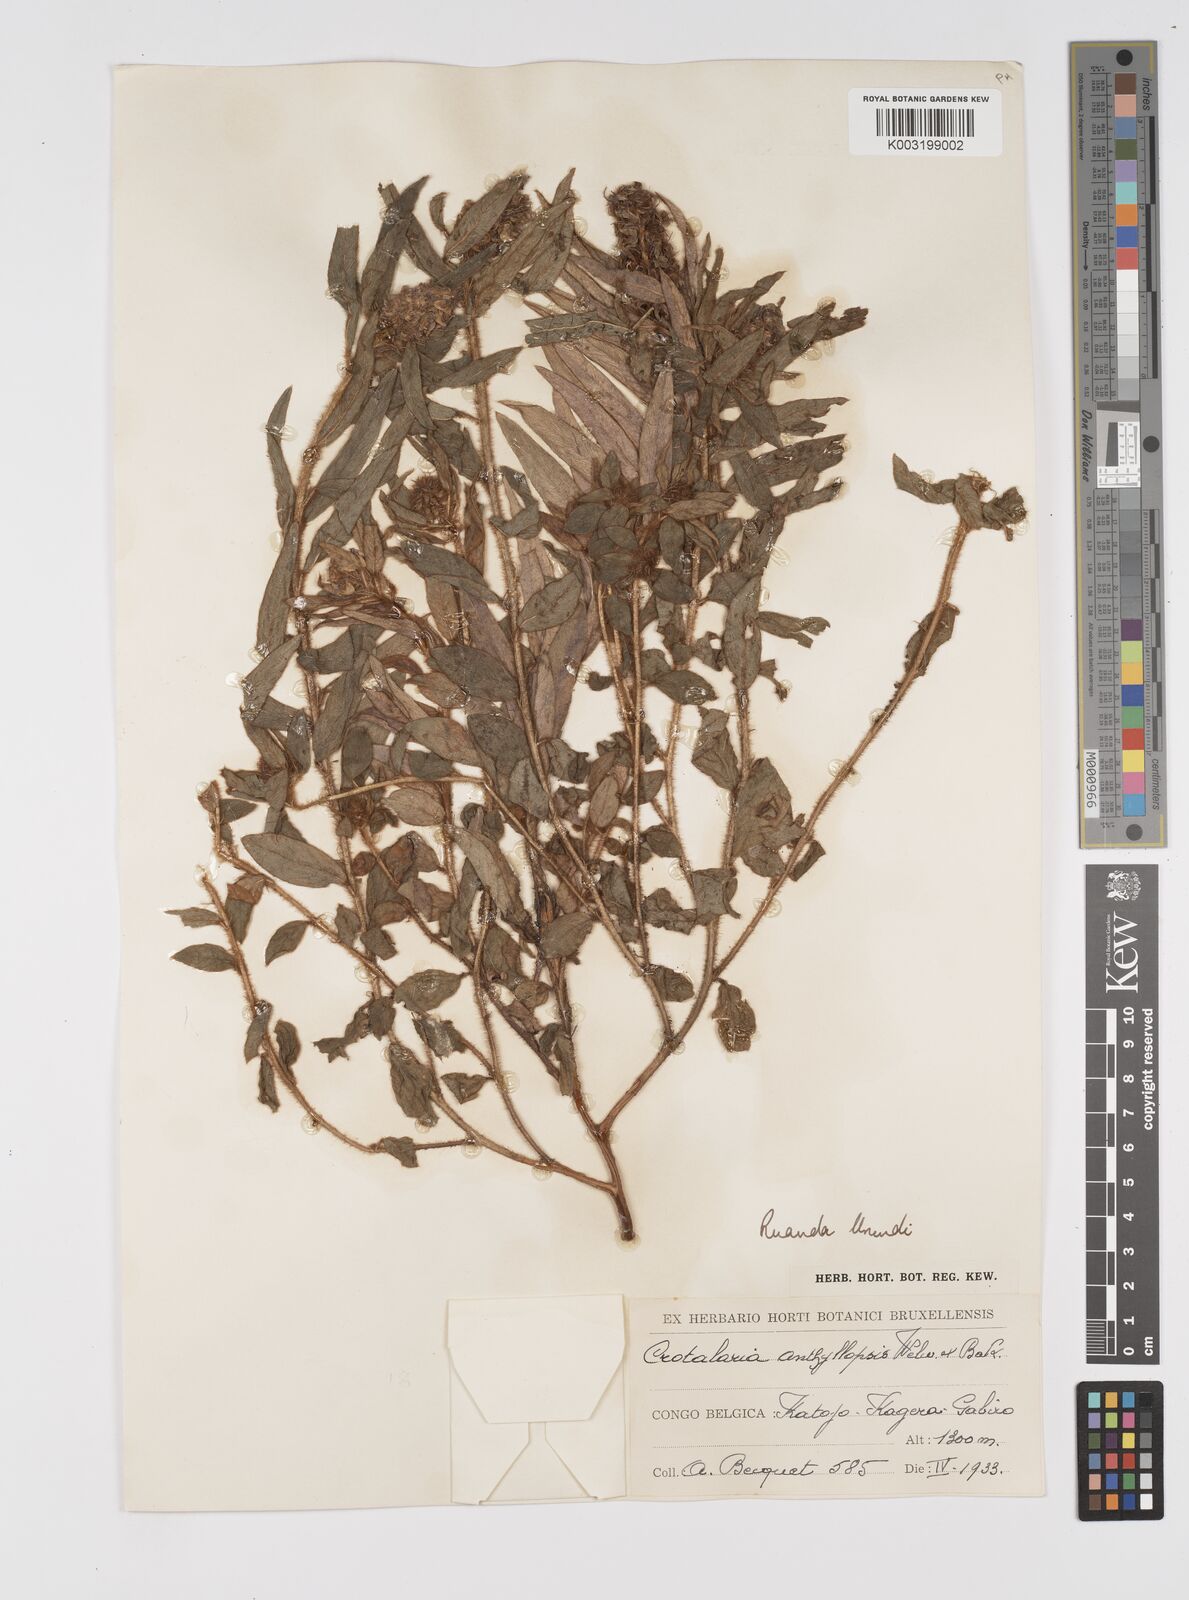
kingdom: Plantae
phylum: Tracheophyta
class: Magnoliopsida
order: Fabales
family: Fabaceae
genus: Crotalaria
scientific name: Crotalaria anthyllopsis
